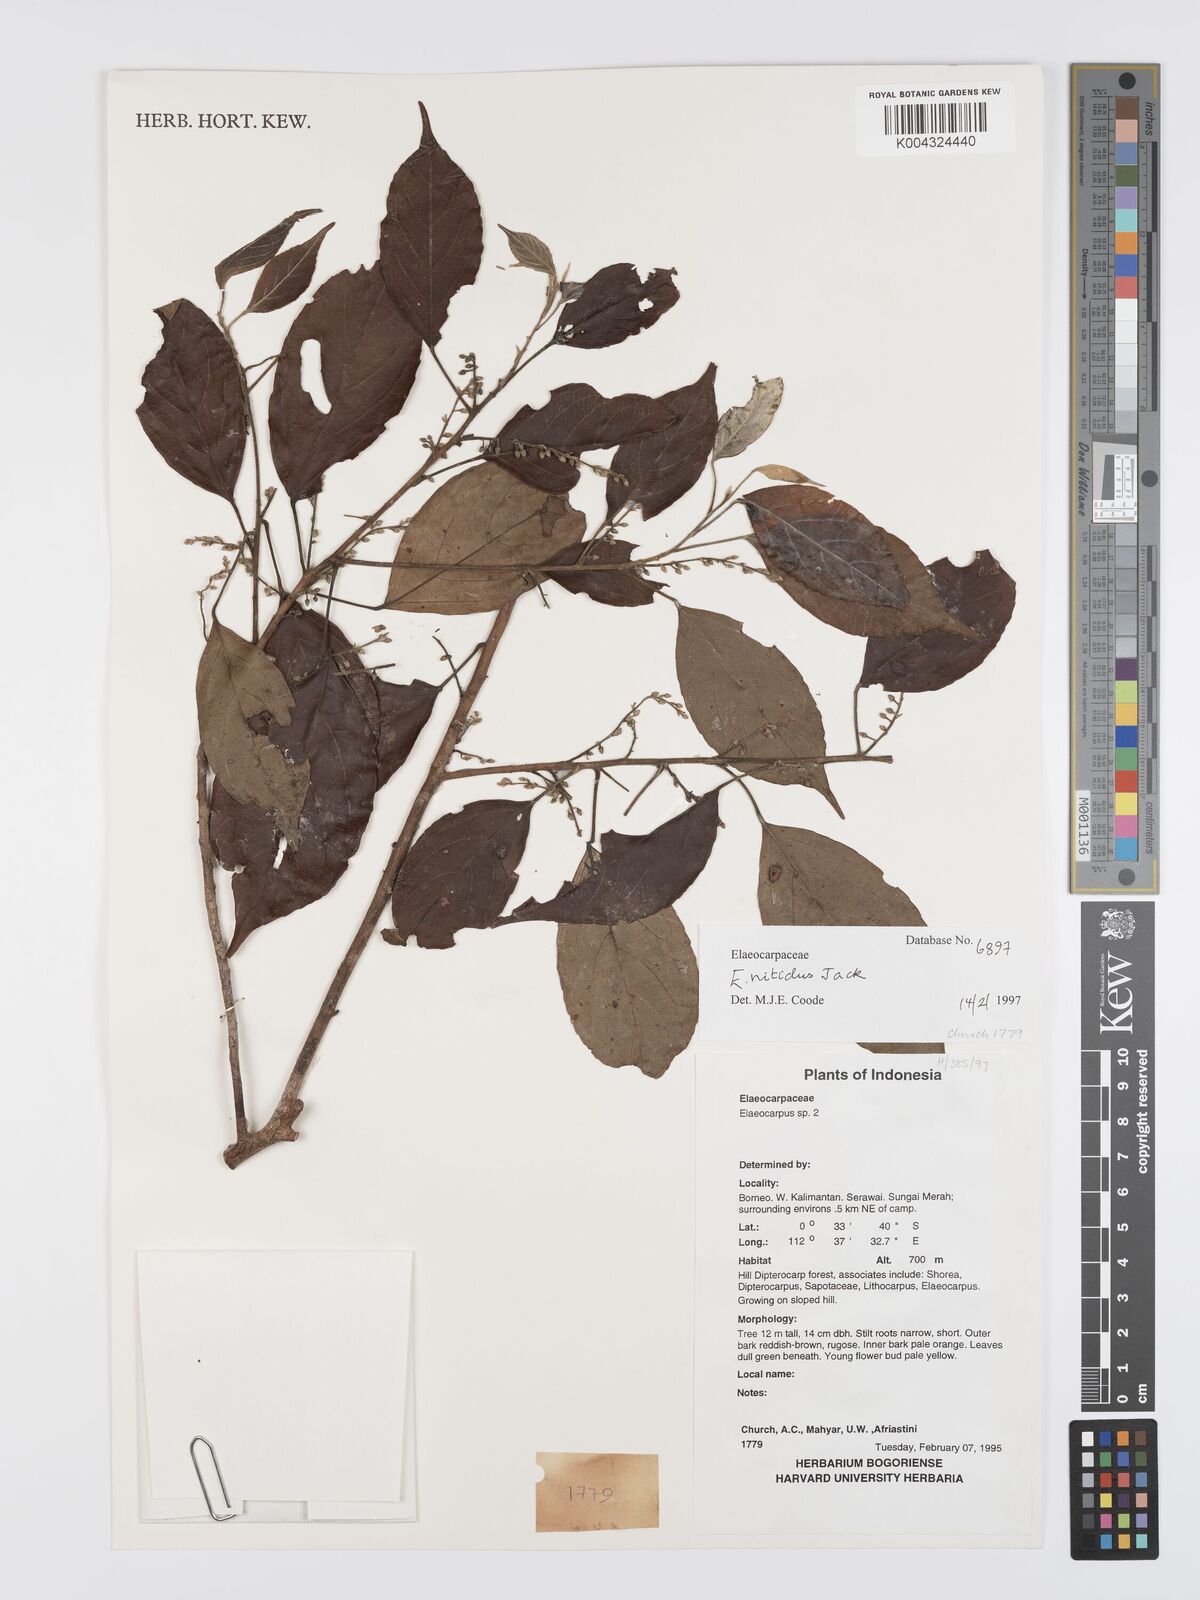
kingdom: Plantae
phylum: Tracheophyta
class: Magnoliopsida
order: Oxalidales
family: Elaeocarpaceae
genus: Elaeocarpus
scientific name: Elaeocarpus nitidus
